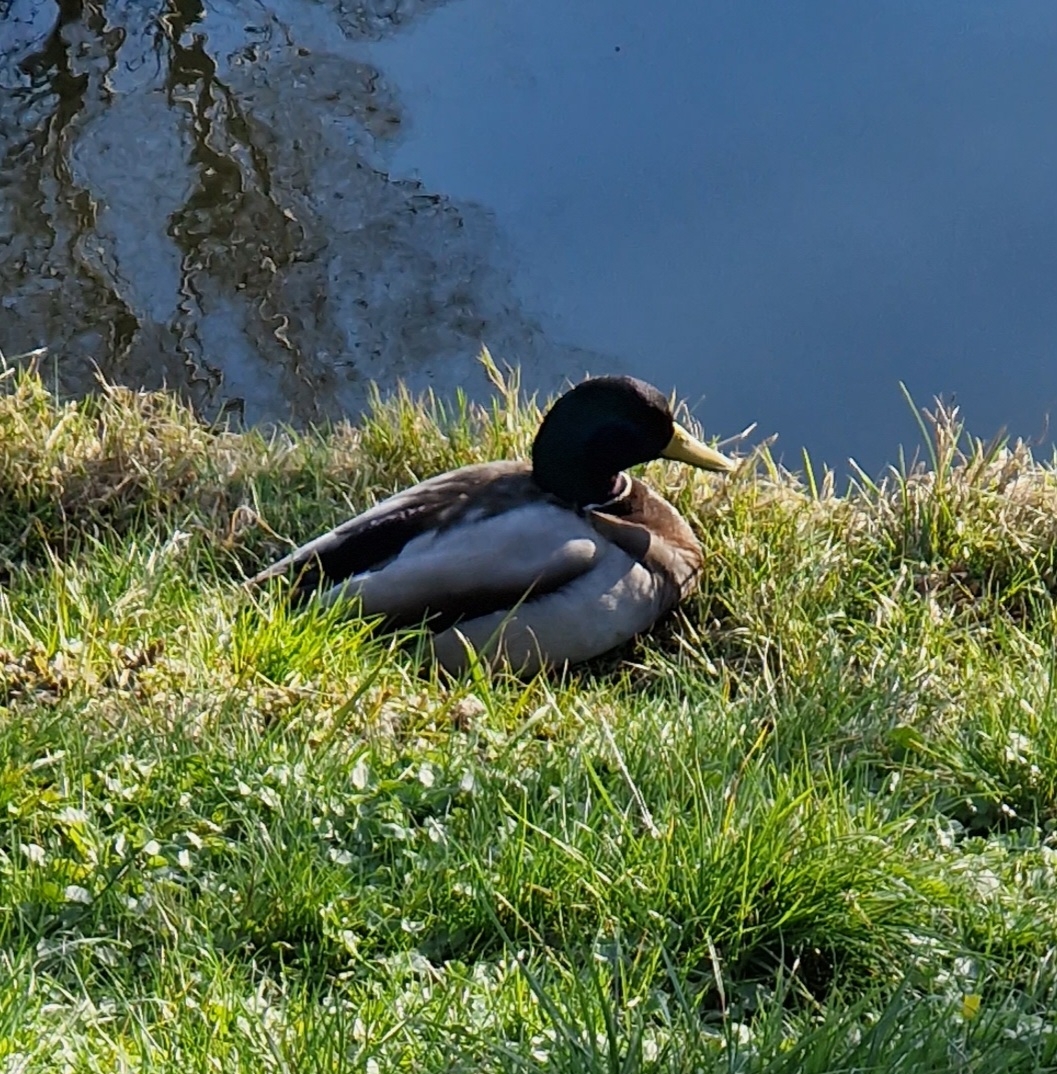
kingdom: Animalia
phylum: Chordata
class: Aves
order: Anseriformes
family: Anatidae
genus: Anas
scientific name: Anas platyrhynchos
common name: Gråand
